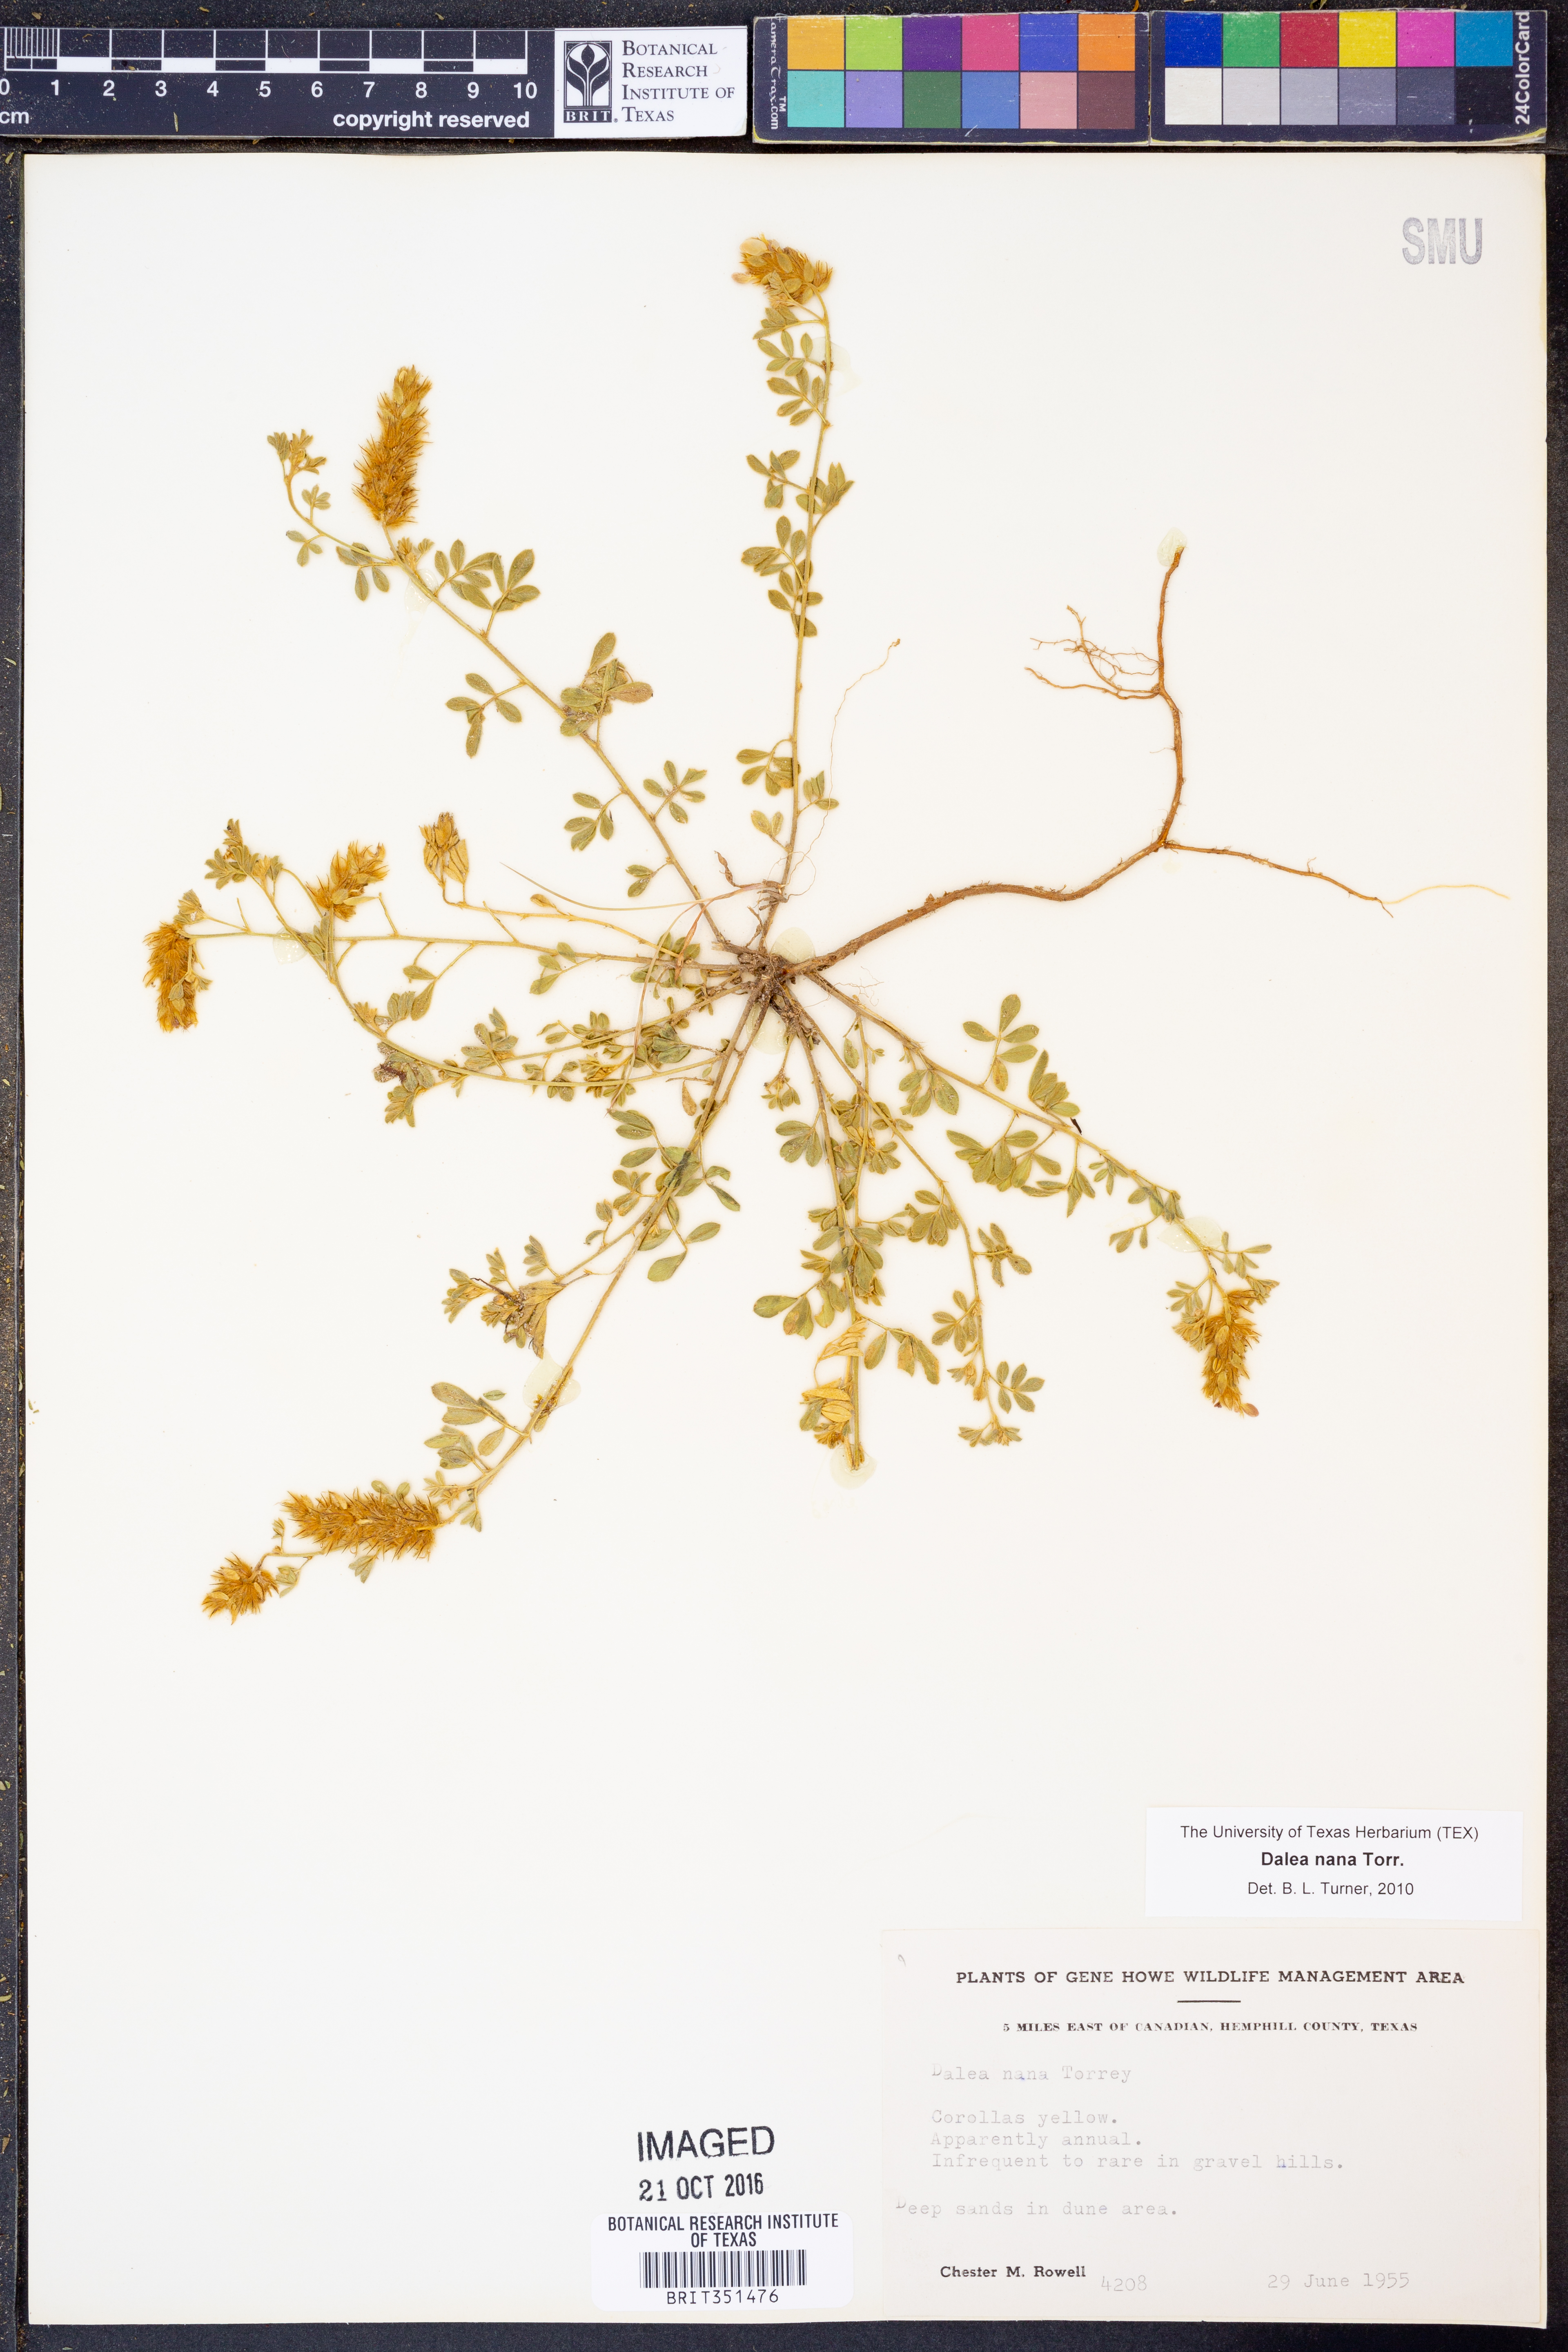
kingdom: Plantae
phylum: Tracheophyta
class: Magnoliopsida
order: Fabales
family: Fabaceae
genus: Dalea
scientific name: Dalea nana
